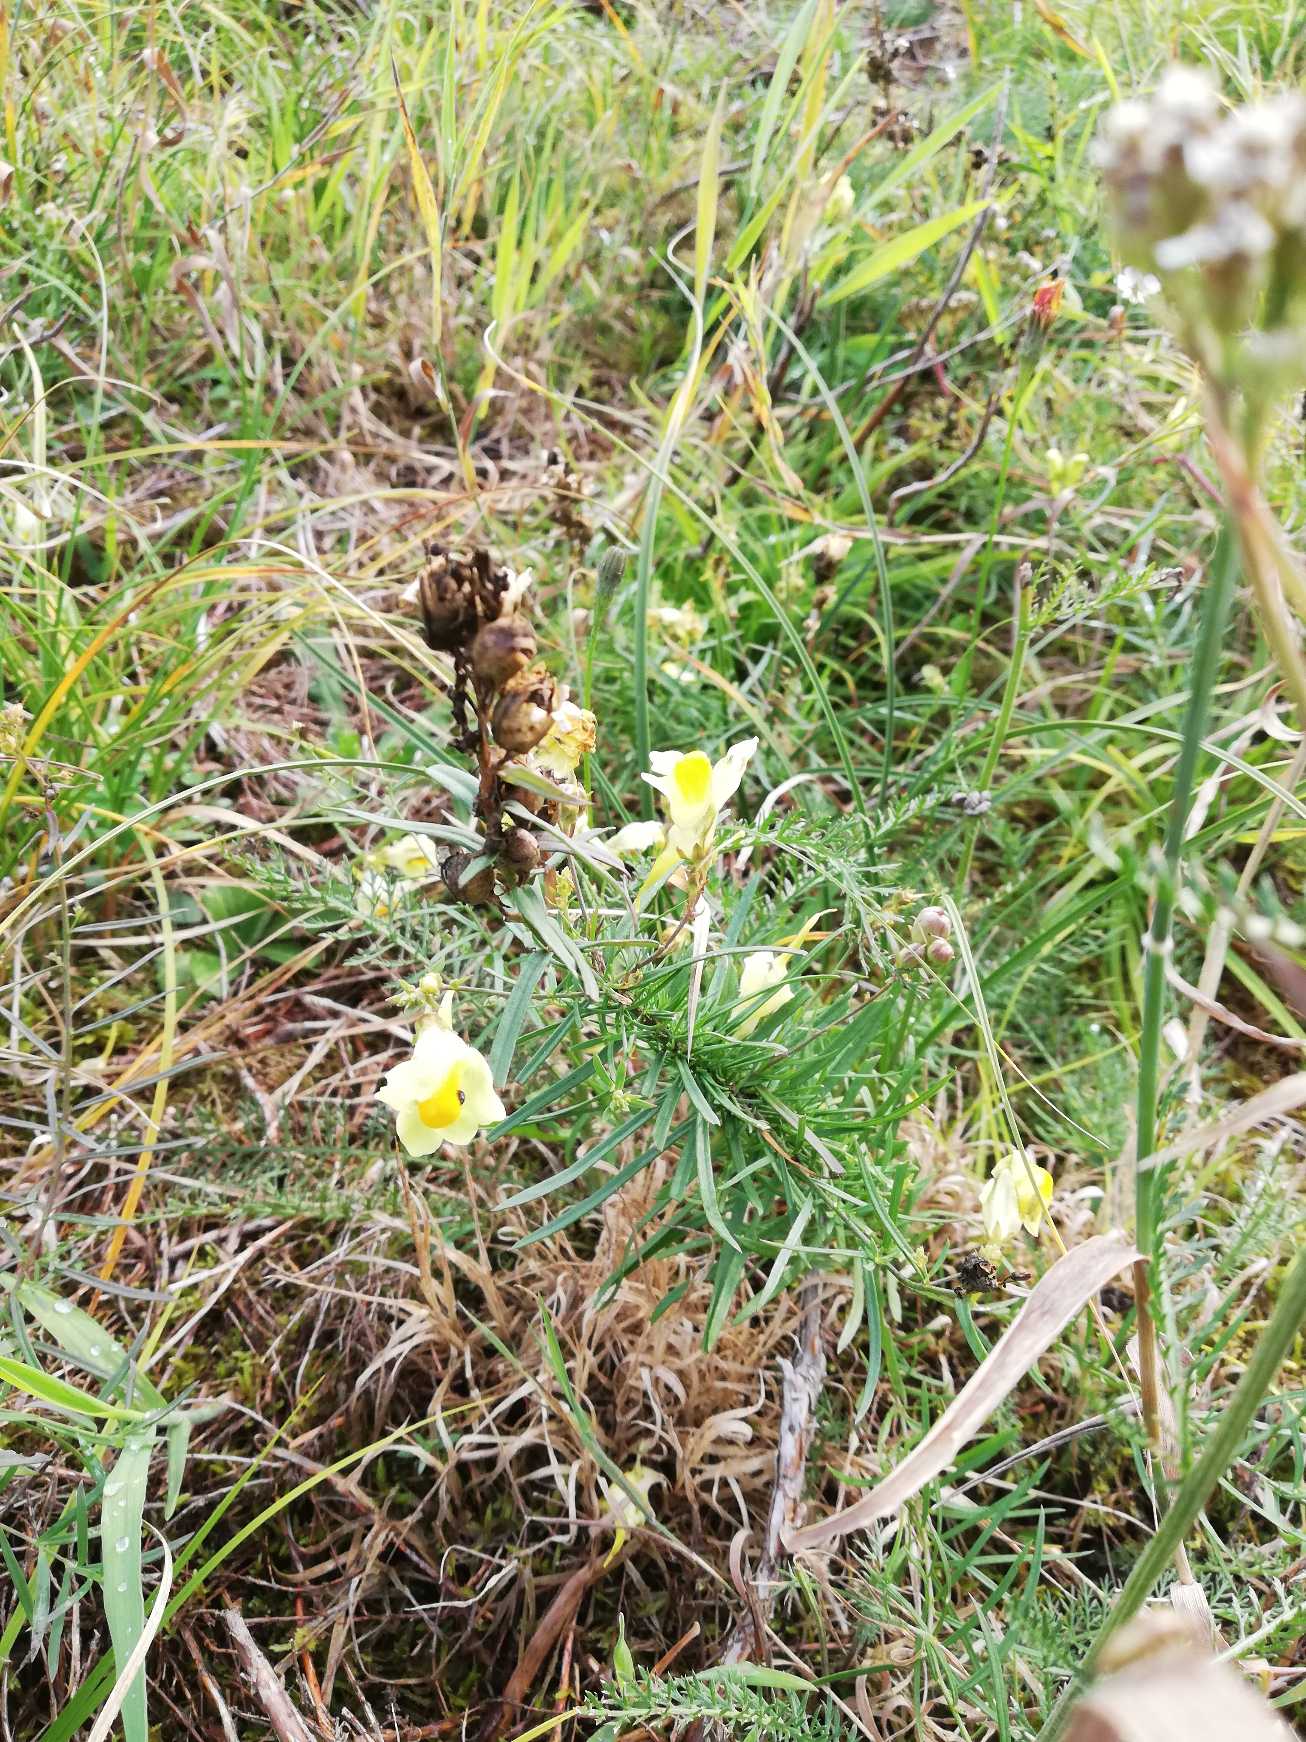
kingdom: Plantae
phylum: Tracheophyta
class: Magnoliopsida
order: Lamiales
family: Plantaginaceae
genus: Linaria
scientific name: Linaria vulgaris
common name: Almindelig torskemund
